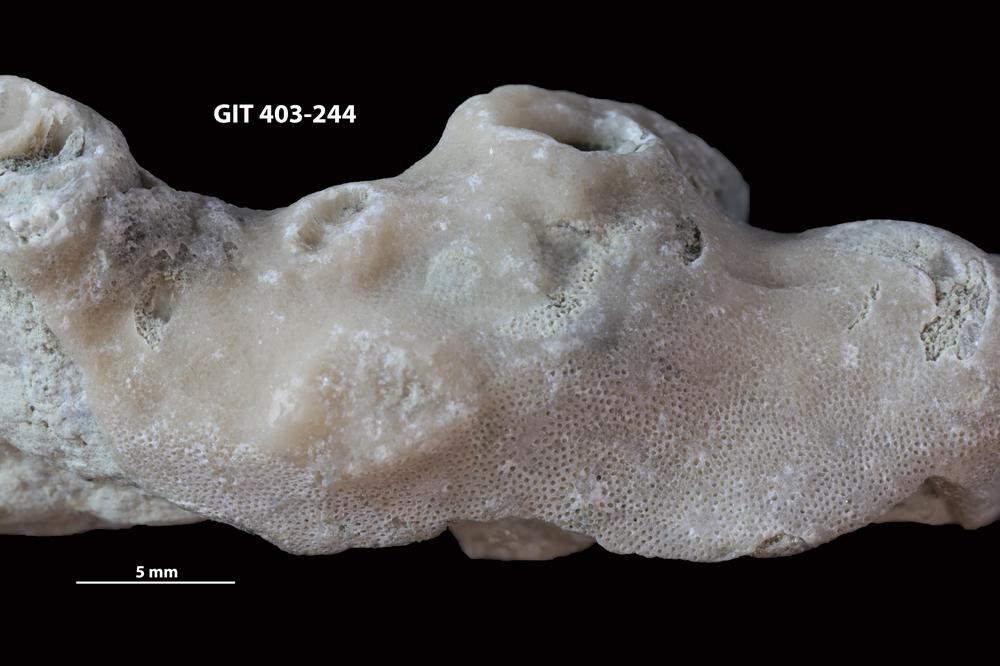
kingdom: Animalia
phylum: Bryozoa
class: Stenolaemata
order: Cystoporida
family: Fistuliporidae
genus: Fistulipora
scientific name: Fistulipora przhidolensis
